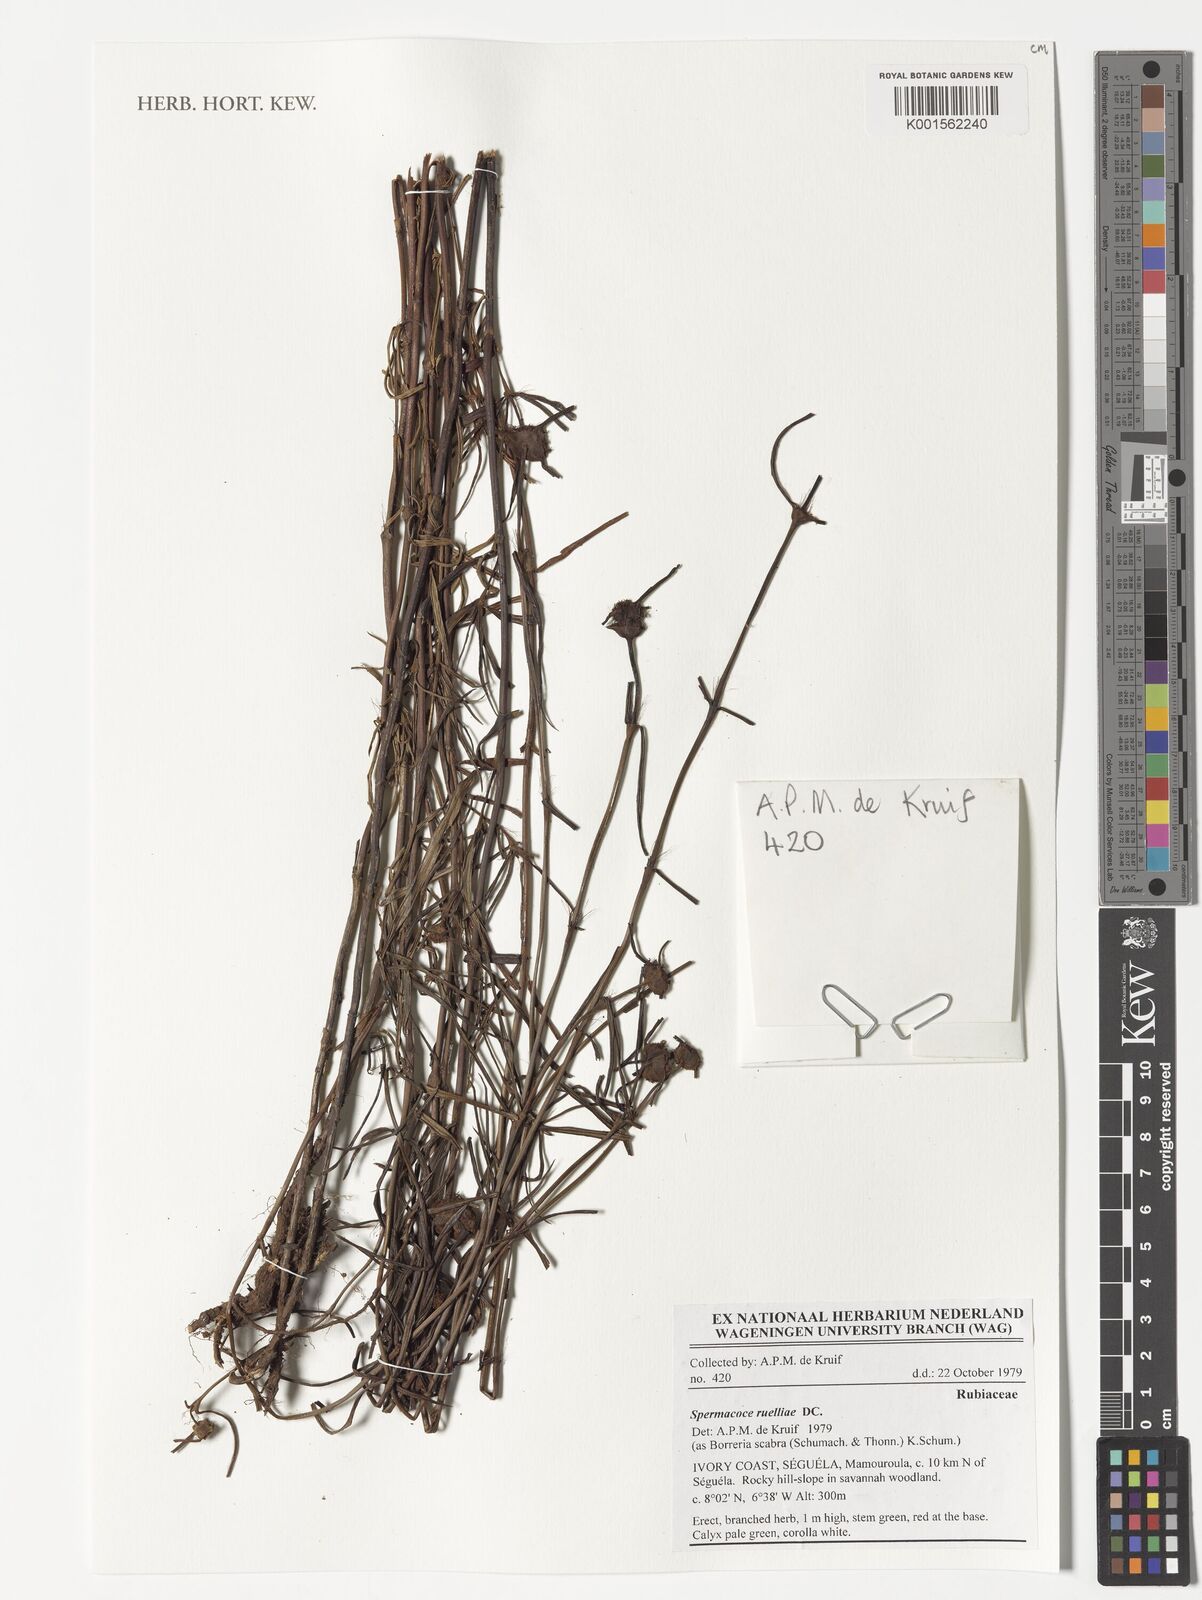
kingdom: Plantae
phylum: Tracheophyta
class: Magnoliopsida
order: Gentianales
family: Rubiaceae
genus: Spermacoce
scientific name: Spermacoce ruelliae
